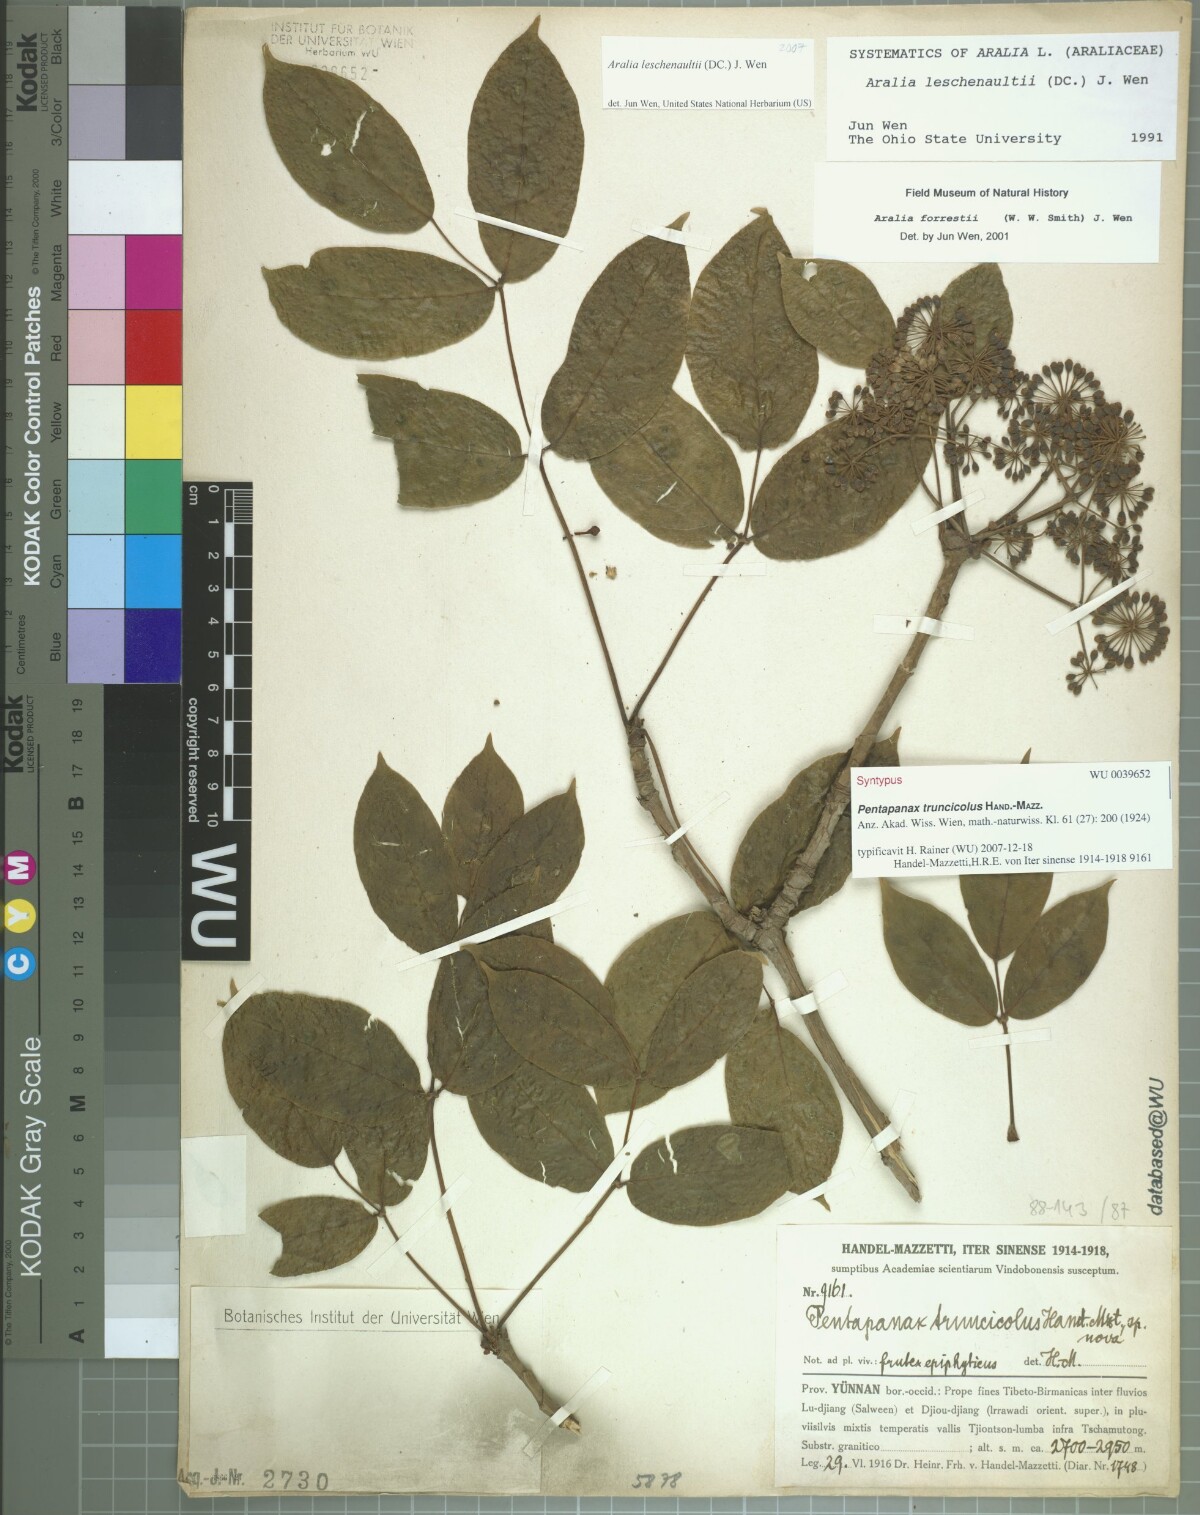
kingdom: Plantae
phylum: Tracheophyta
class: Magnoliopsida
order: Apiales
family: Araliaceae
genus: Aralia
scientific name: Aralia leschenaultii
